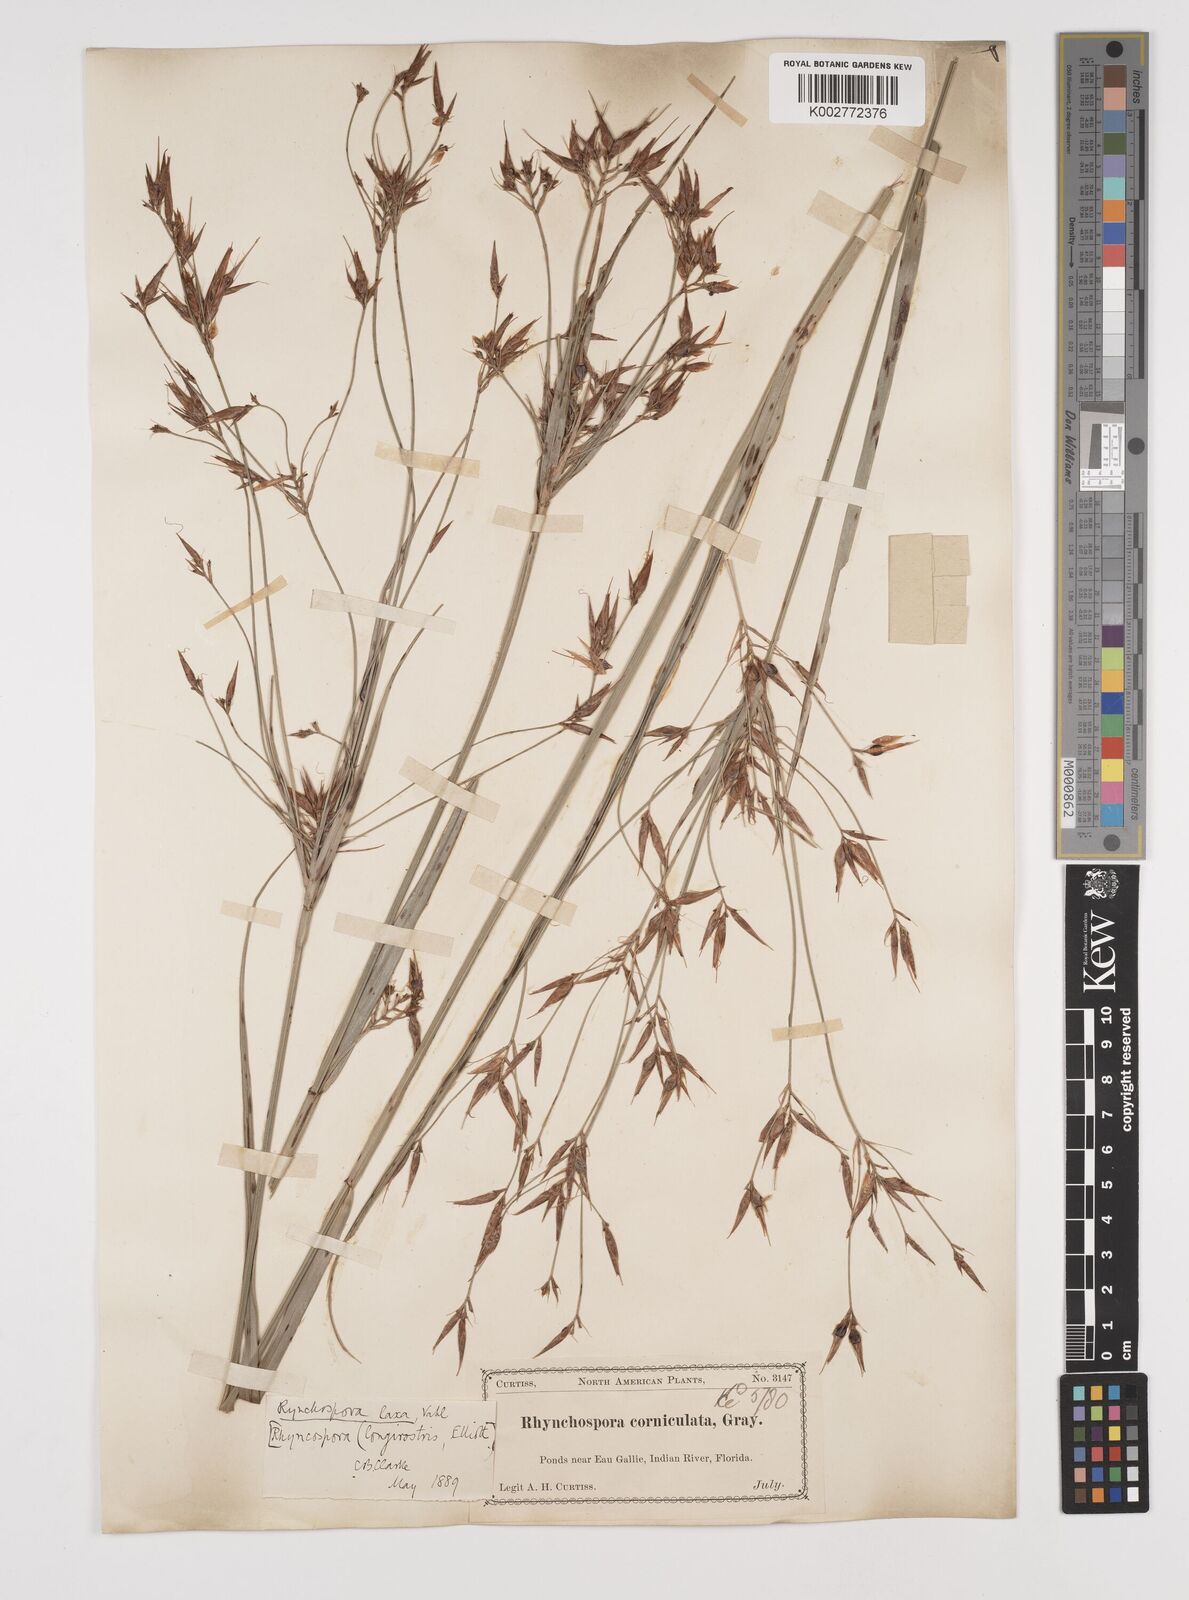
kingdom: Plantae
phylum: Tracheophyta
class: Liliopsida
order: Poales
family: Cyperaceae
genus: Rhynchospora
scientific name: Rhynchospora corniculata
